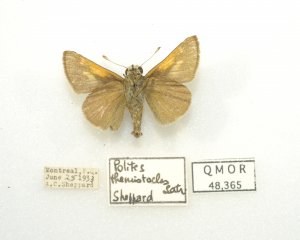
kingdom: Animalia
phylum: Arthropoda
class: Insecta
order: Lepidoptera
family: Hesperiidae
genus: Polites
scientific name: Polites themistocles
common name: Tawny-edged Skipper
